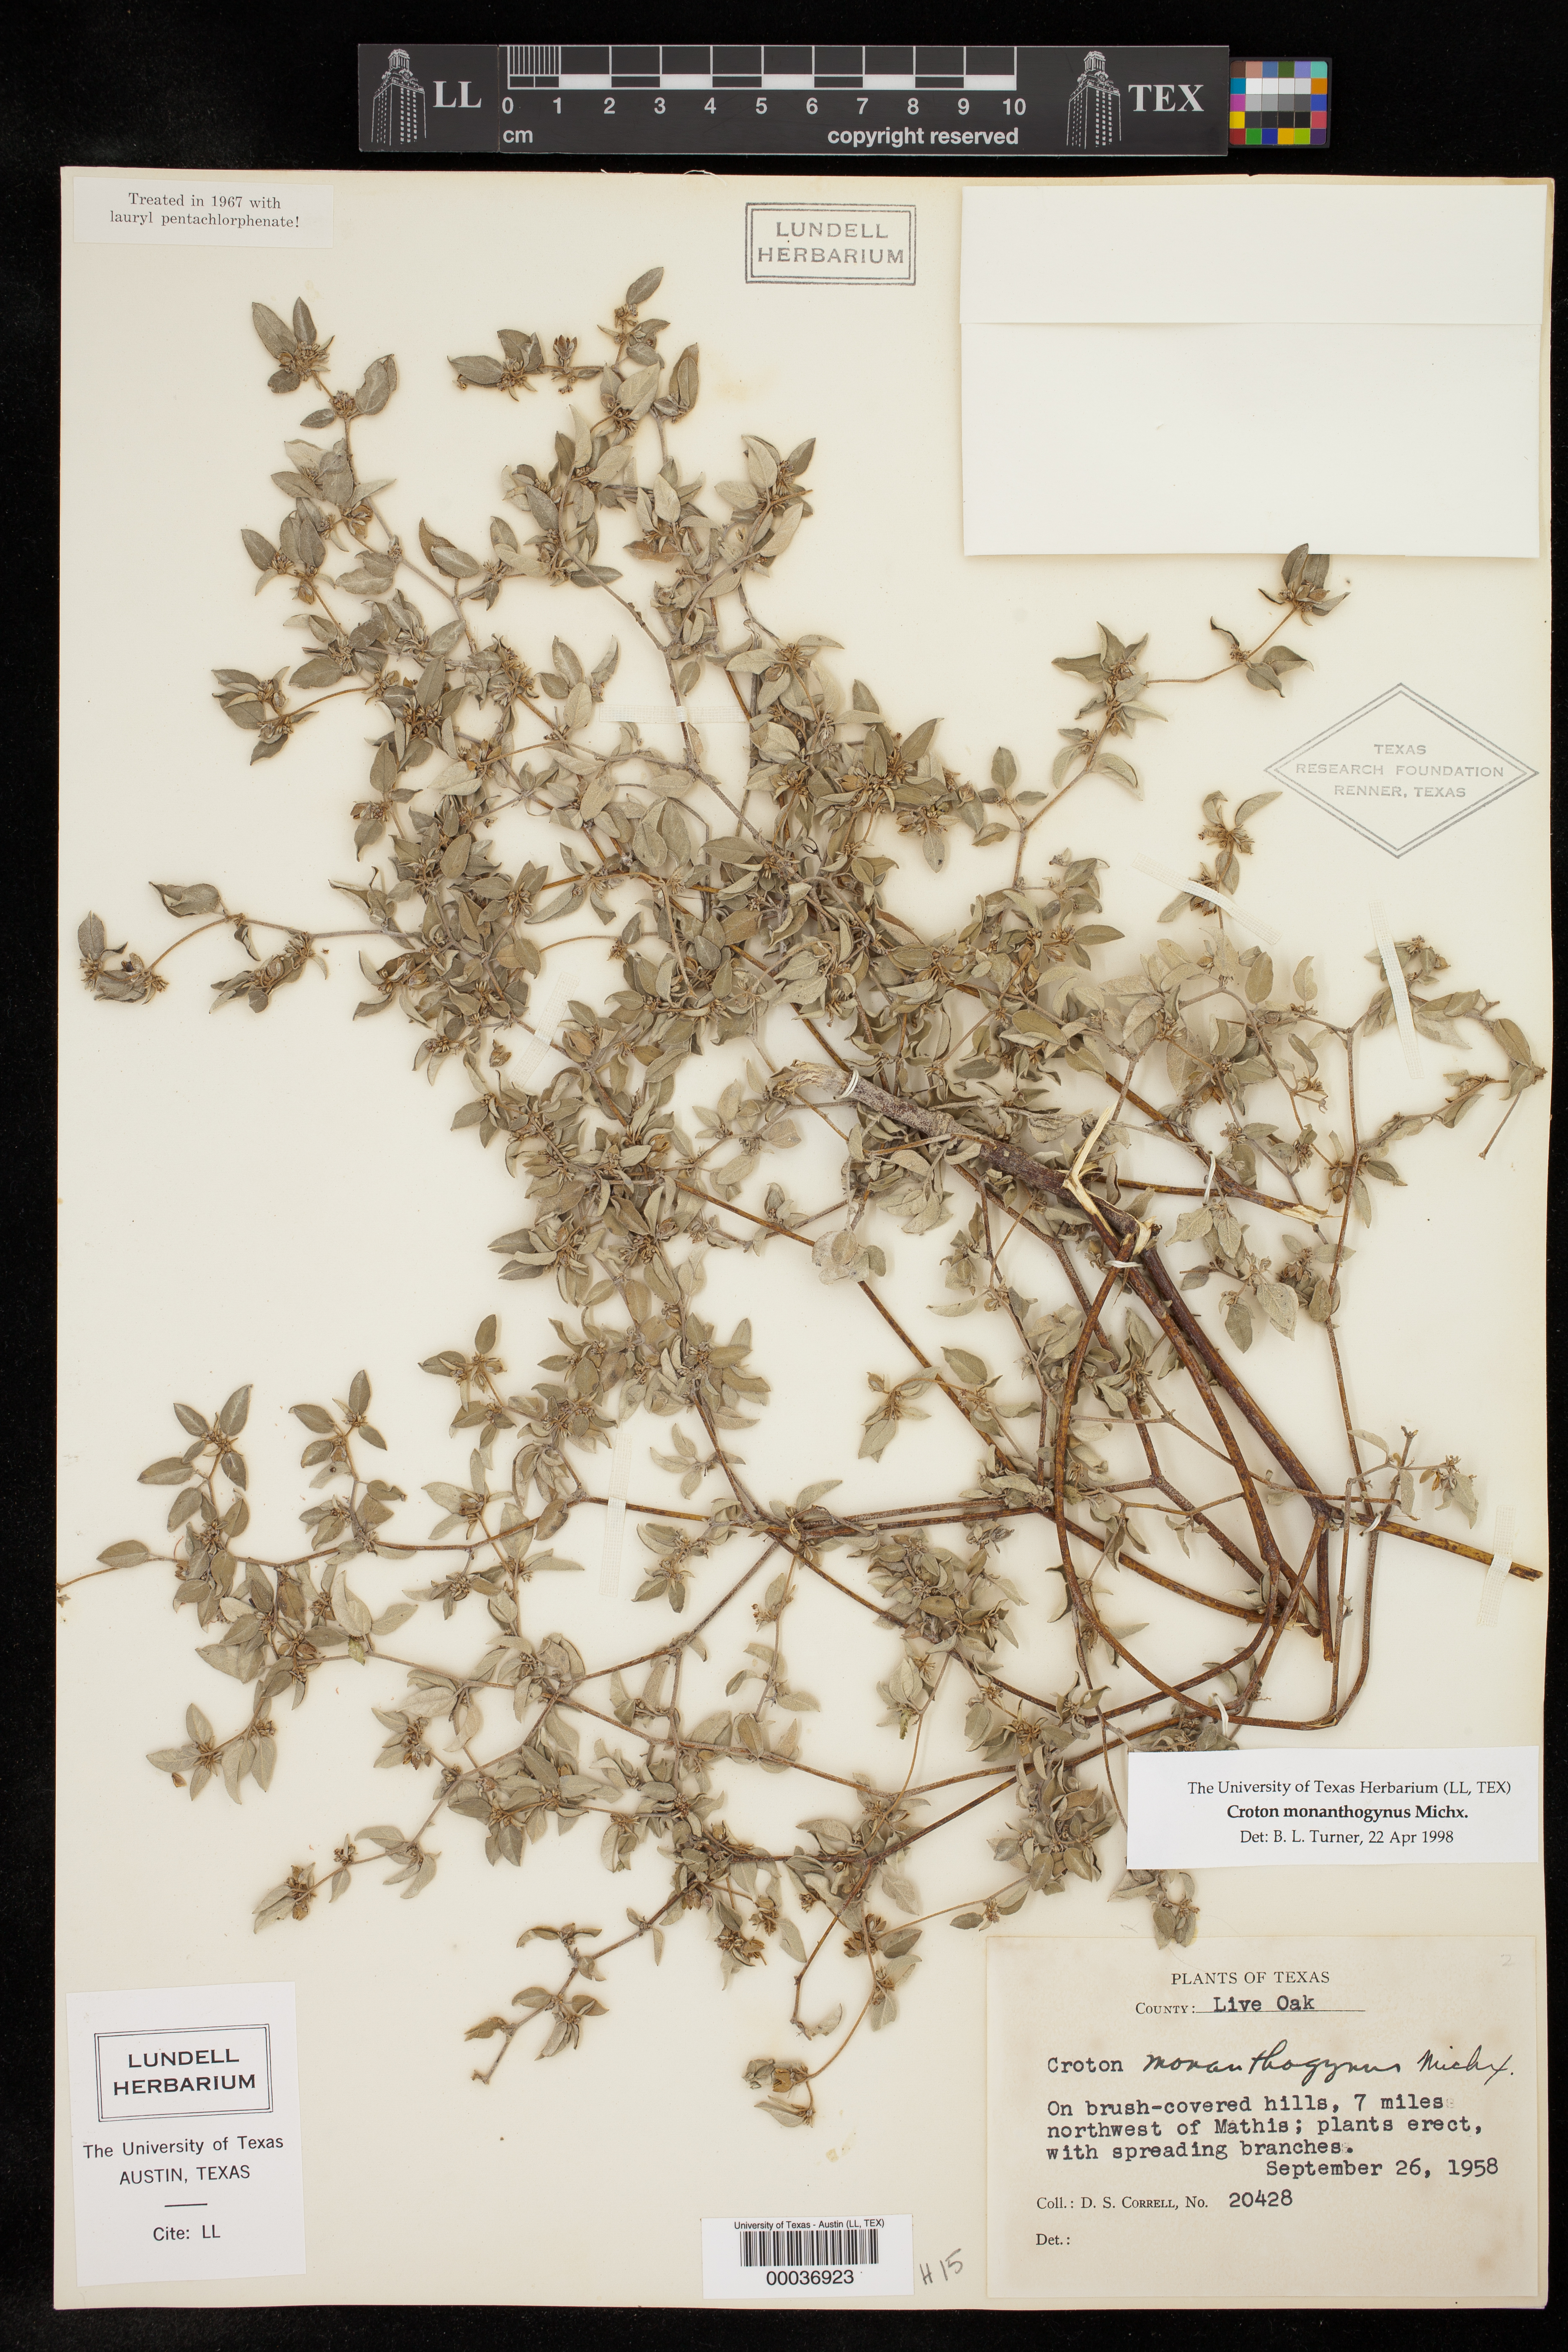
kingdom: Plantae
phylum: Tracheophyta
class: Magnoliopsida
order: Malpighiales
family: Euphorbiaceae
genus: Croton
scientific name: Croton monanthogynus
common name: One-seed croton
